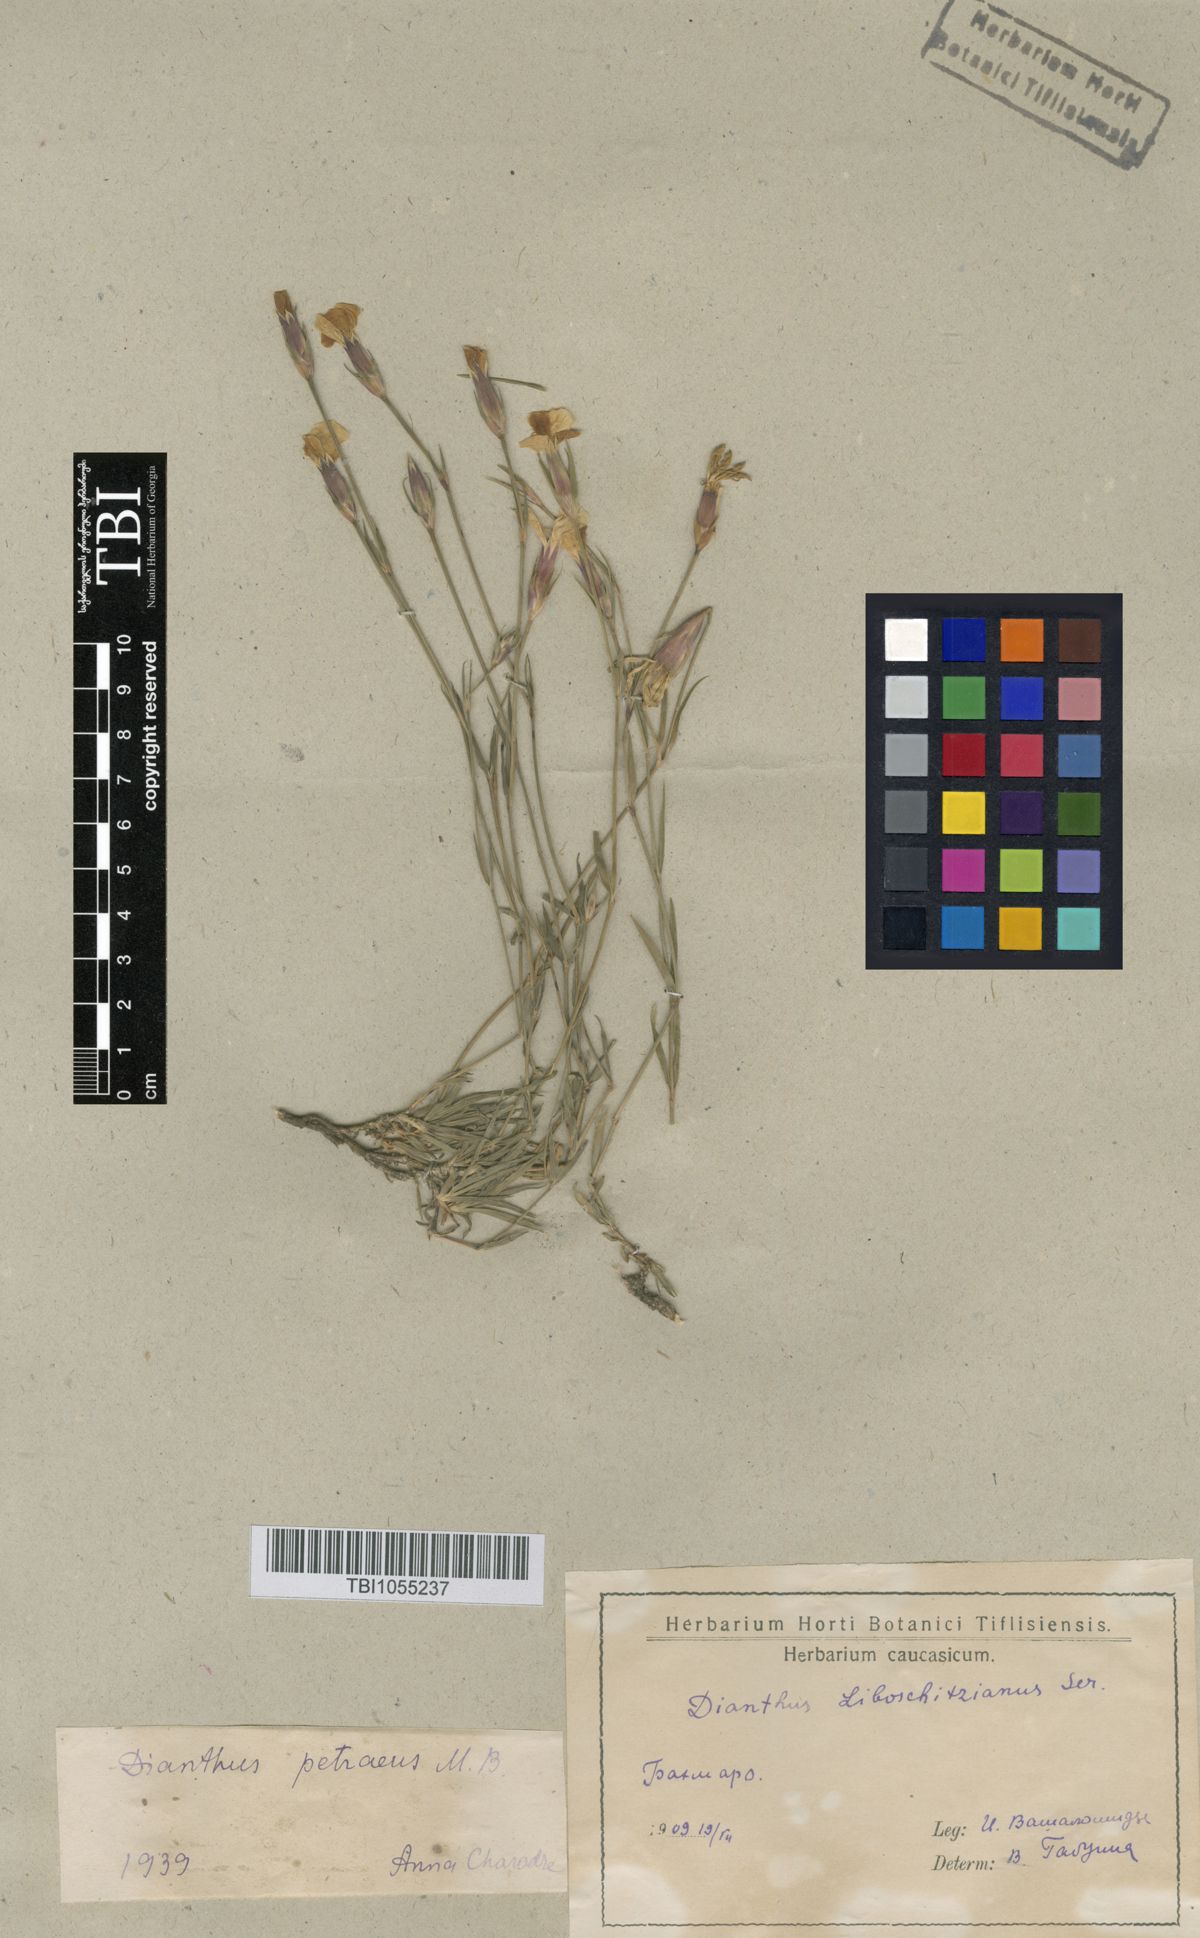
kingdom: Plantae
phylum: Tracheophyta
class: Magnoliopsida
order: Caryophyllales
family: Caryophyllaceae
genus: Dianthus
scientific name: Dianthus cretaceus
